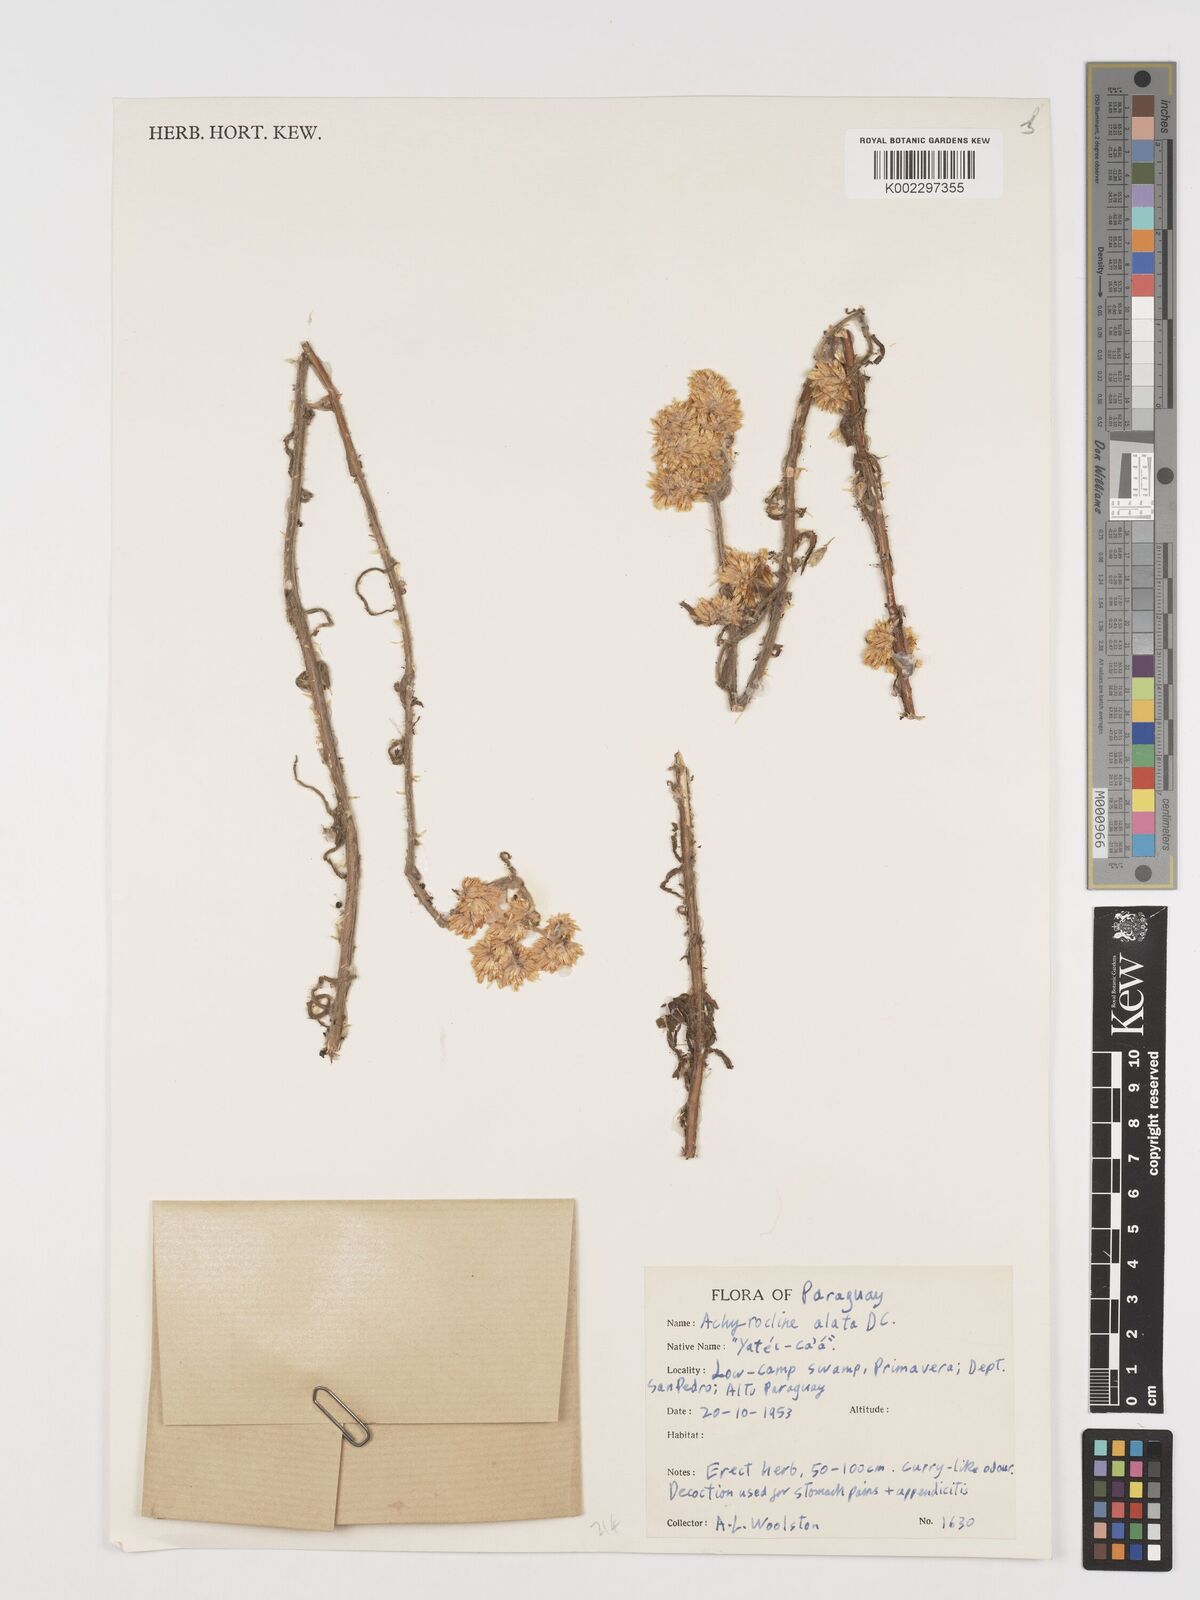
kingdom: Plantae
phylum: Tracheophyta
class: Magnoliopsida
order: Asterales
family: Asteraceae
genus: Achyrocline
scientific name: Achyrocline alata
